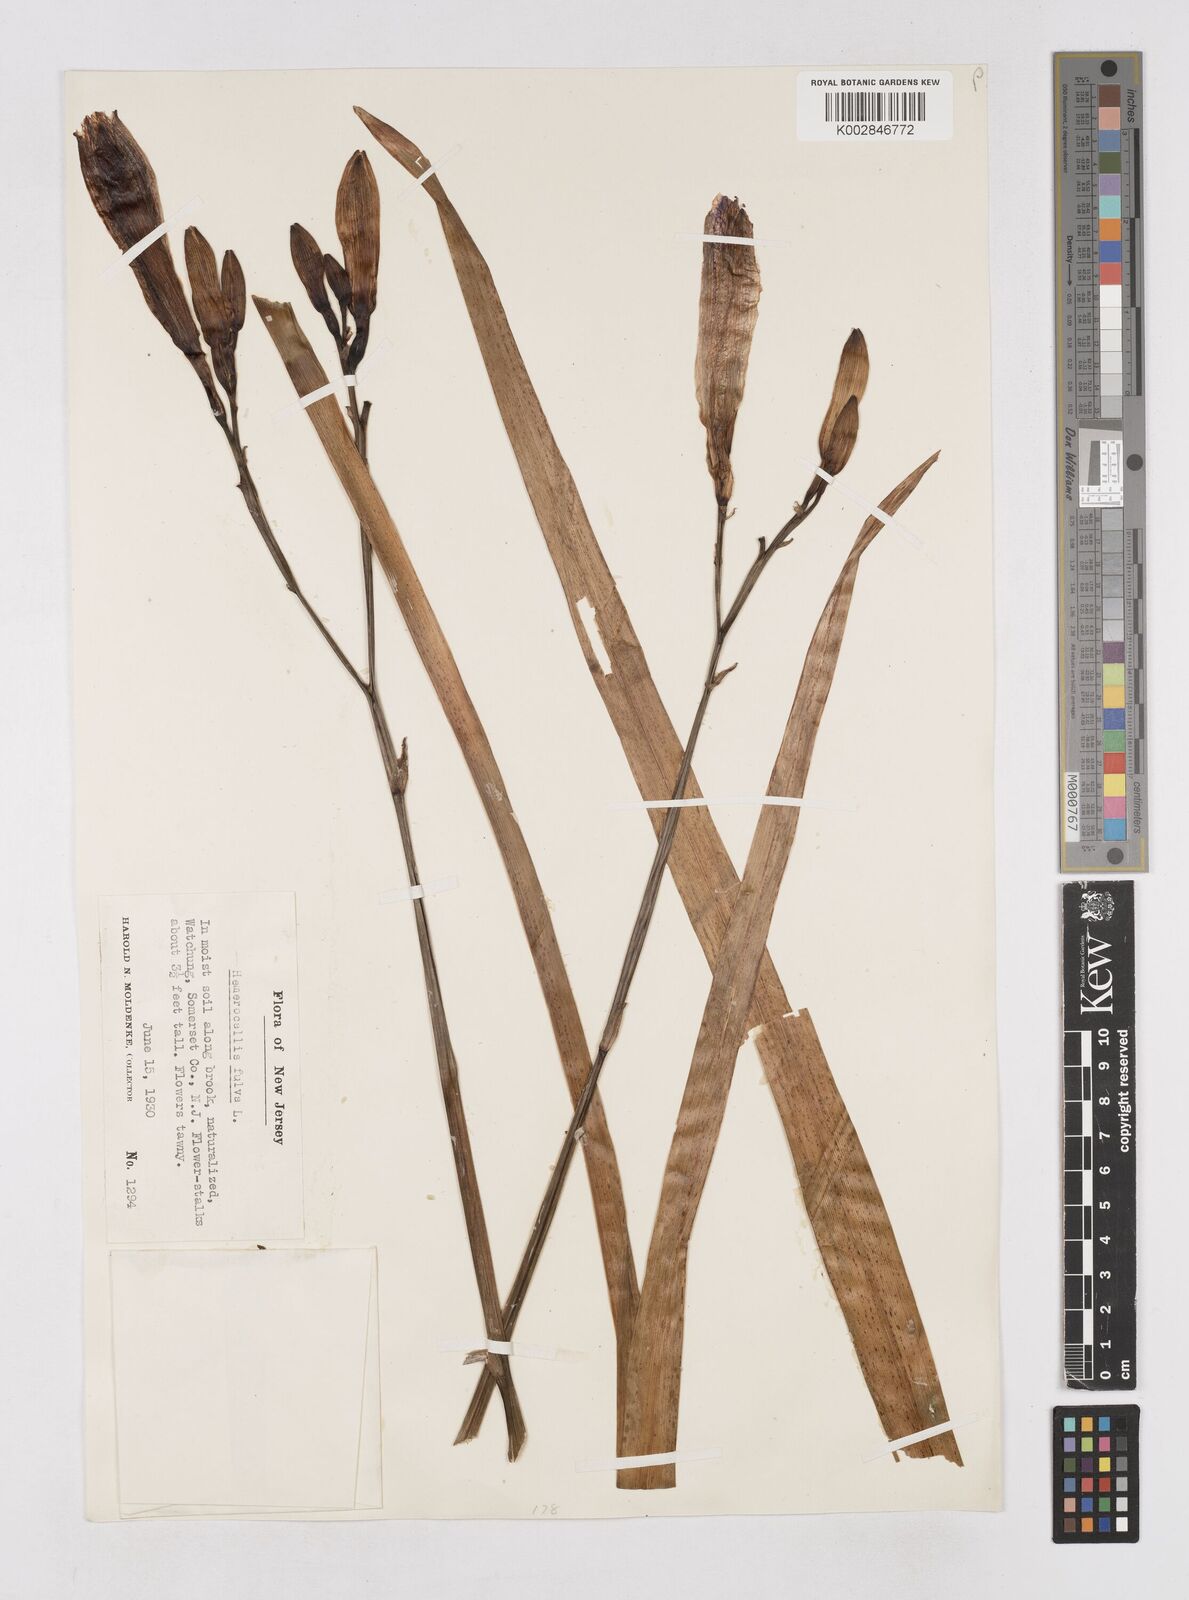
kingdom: Plantae
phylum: Tracheophyta
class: Liliopsida
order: Asparagales
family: Asphodelaceae
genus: Hemerocallis
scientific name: Hemerocallis fulva
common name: Orange day-lily
